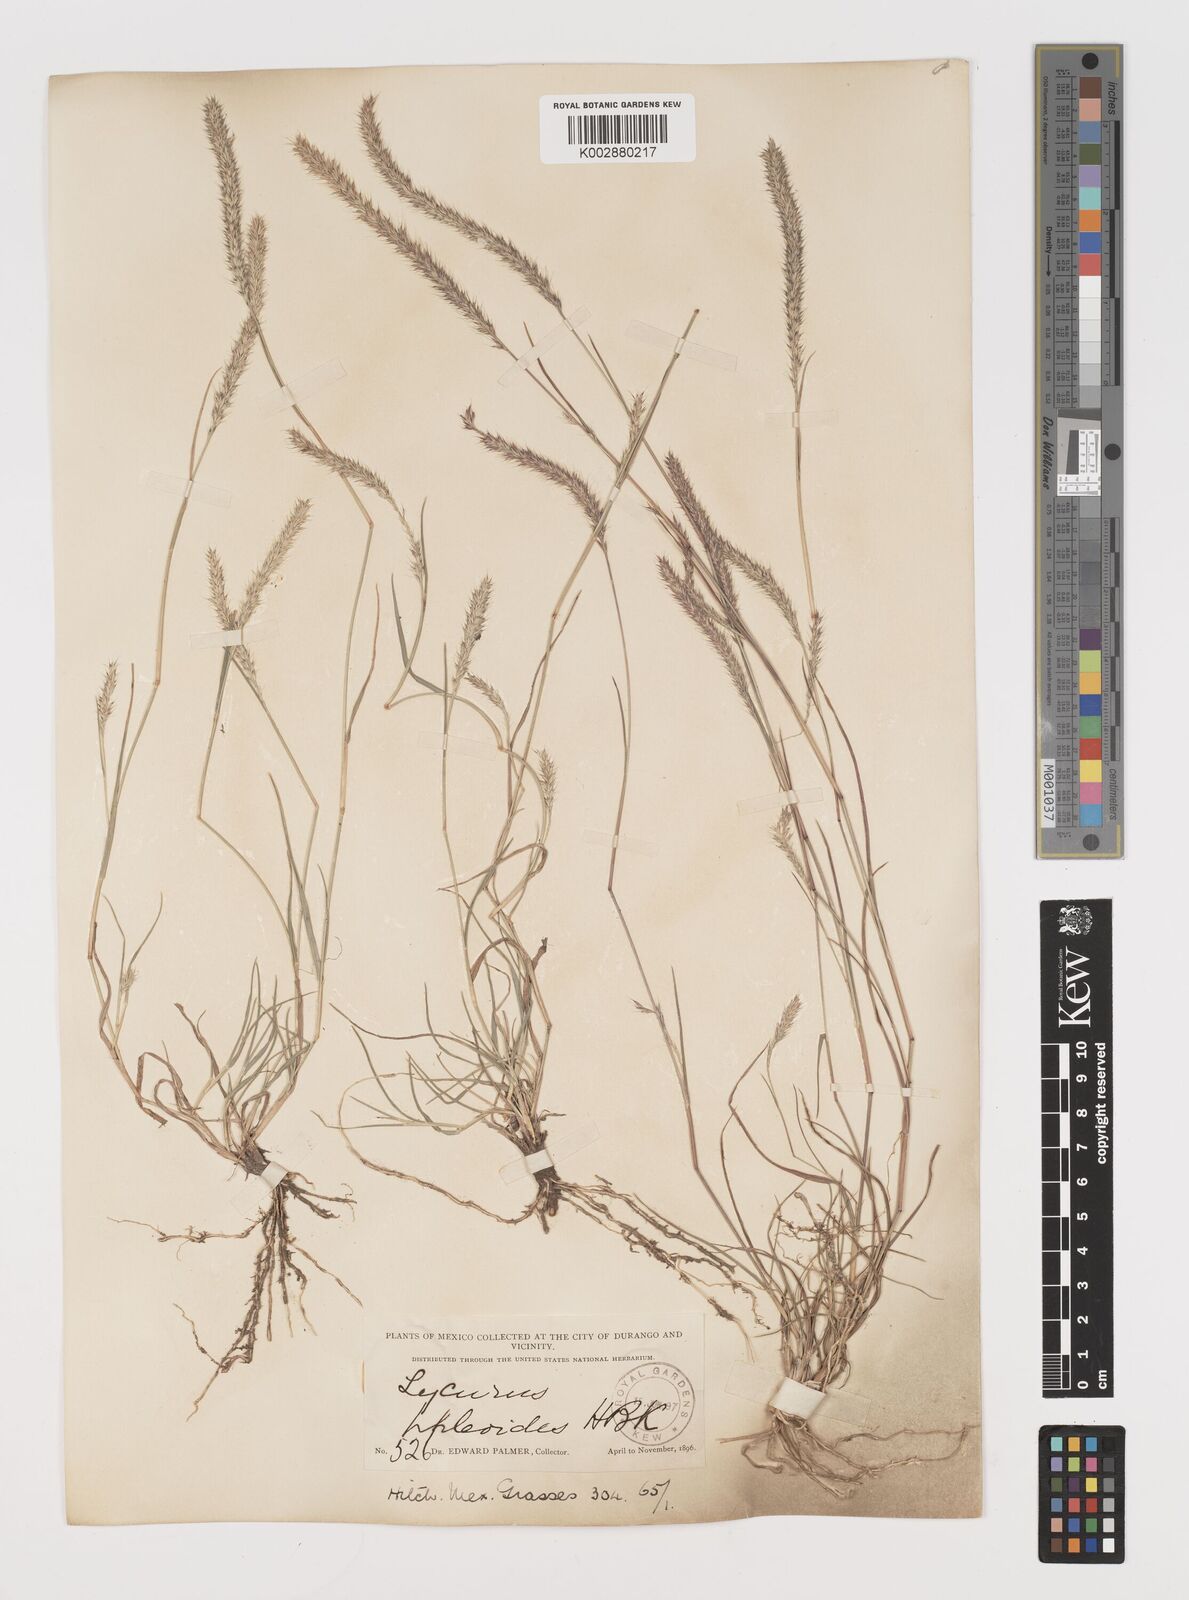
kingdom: Plantae
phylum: Tracheophyta
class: Liliopsida
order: Poales
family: Poaceae
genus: Muhlenbergia
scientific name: Muhlenbergia phleoides
